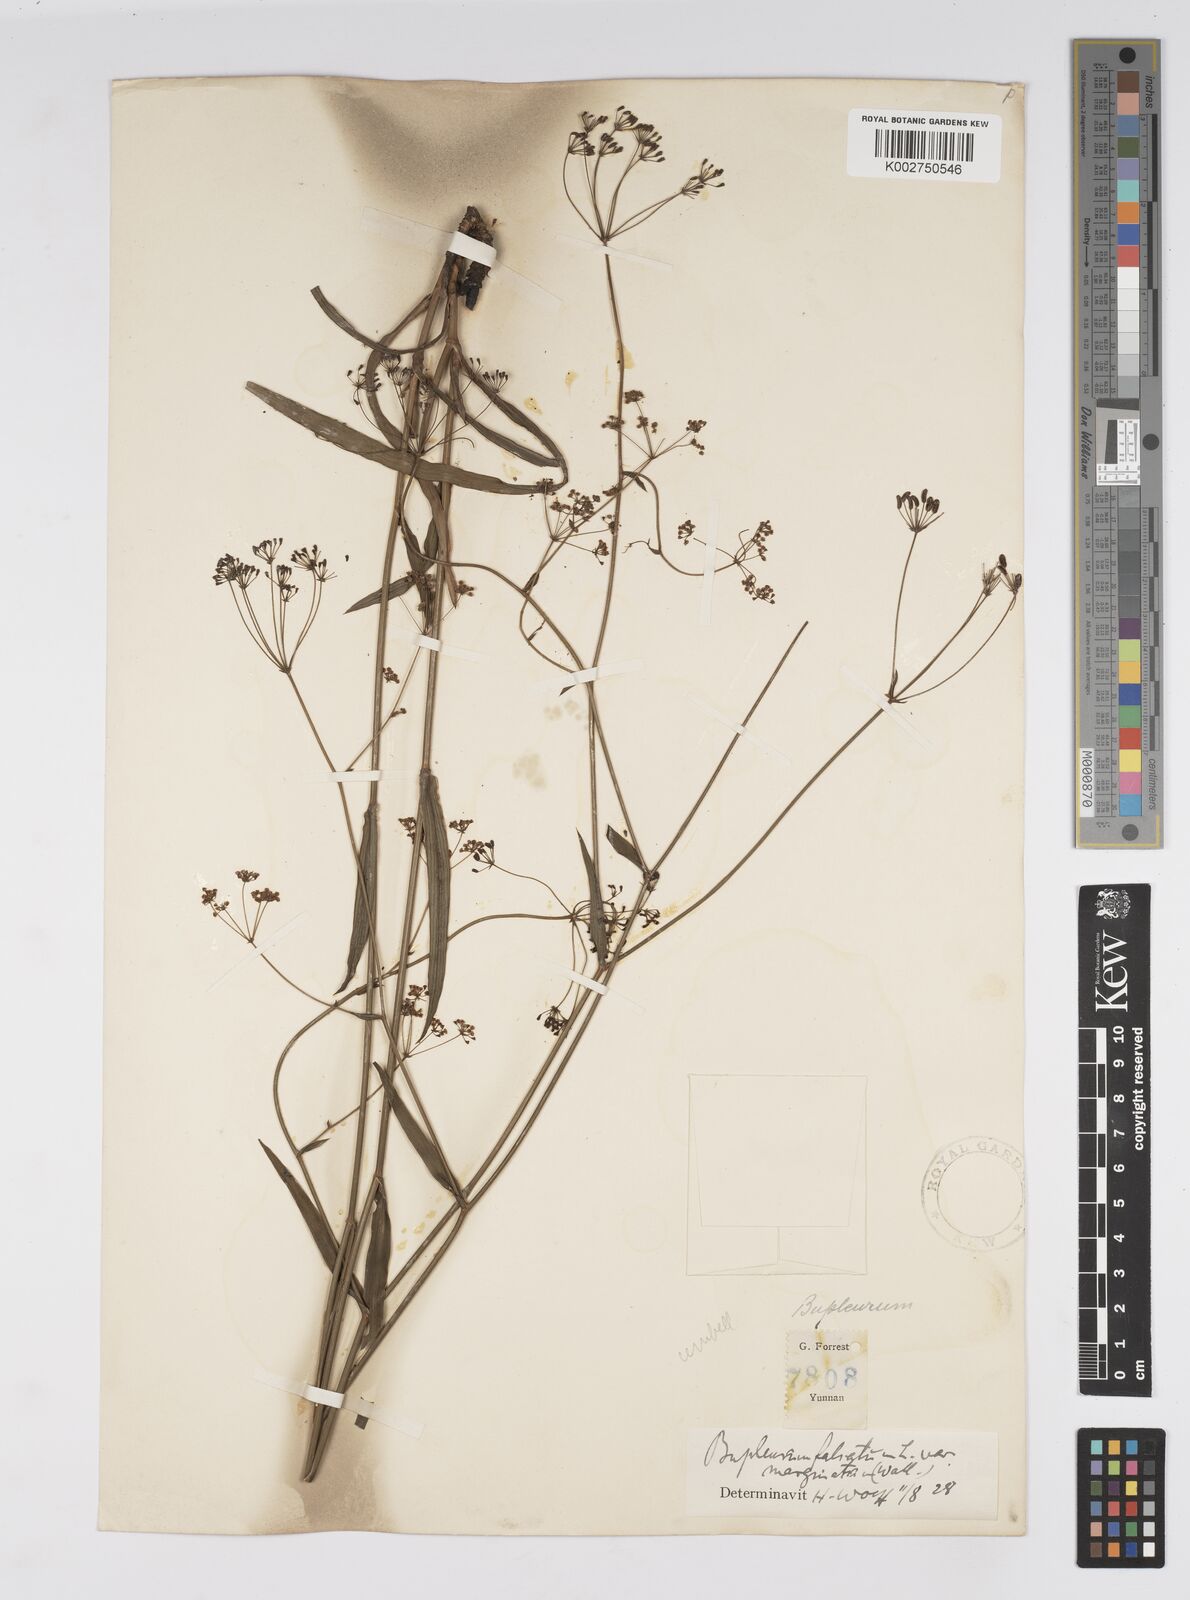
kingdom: Plantae
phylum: Tracheophyta
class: Magnoliopsida
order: Apiales
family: Apiaceae
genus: Bupleurum
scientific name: Bupleurum marginatum
